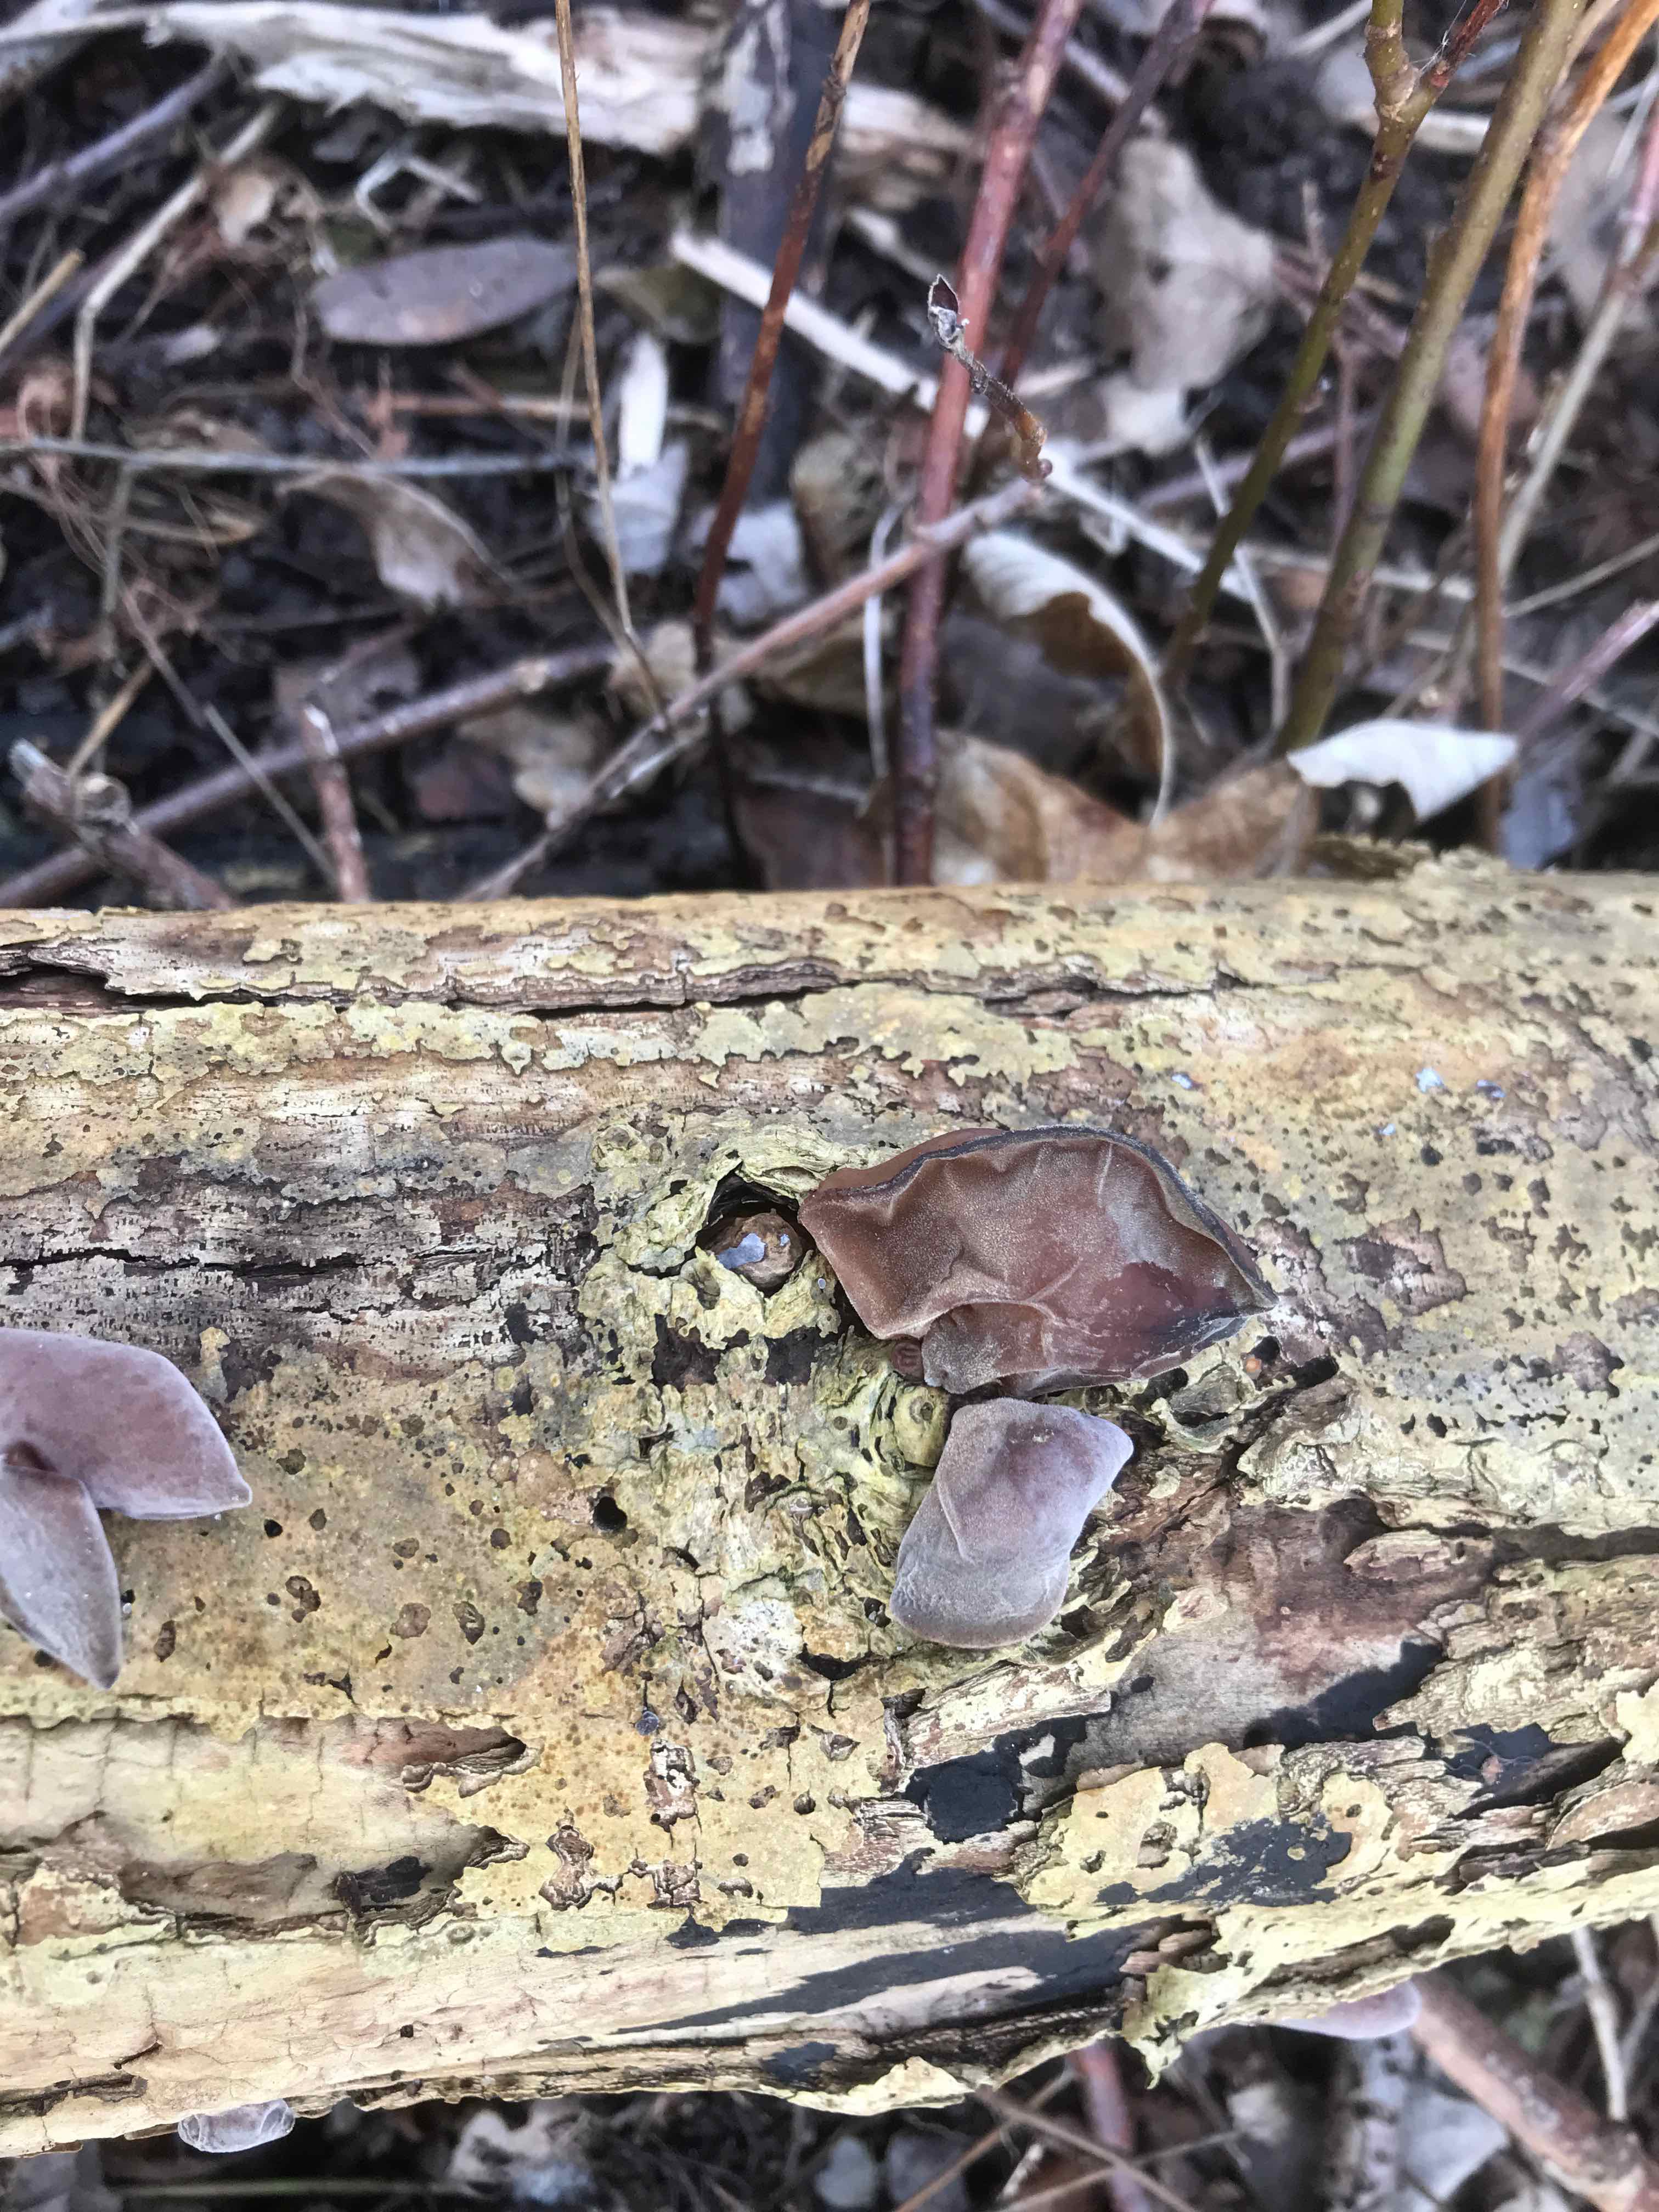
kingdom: Fungi
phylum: Basidiomycota
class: Agaricomycetes
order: Auriculariales
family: Auriculariaceae
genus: Auricularia
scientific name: Auricularia auricula-judae
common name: almindelig judasøre
